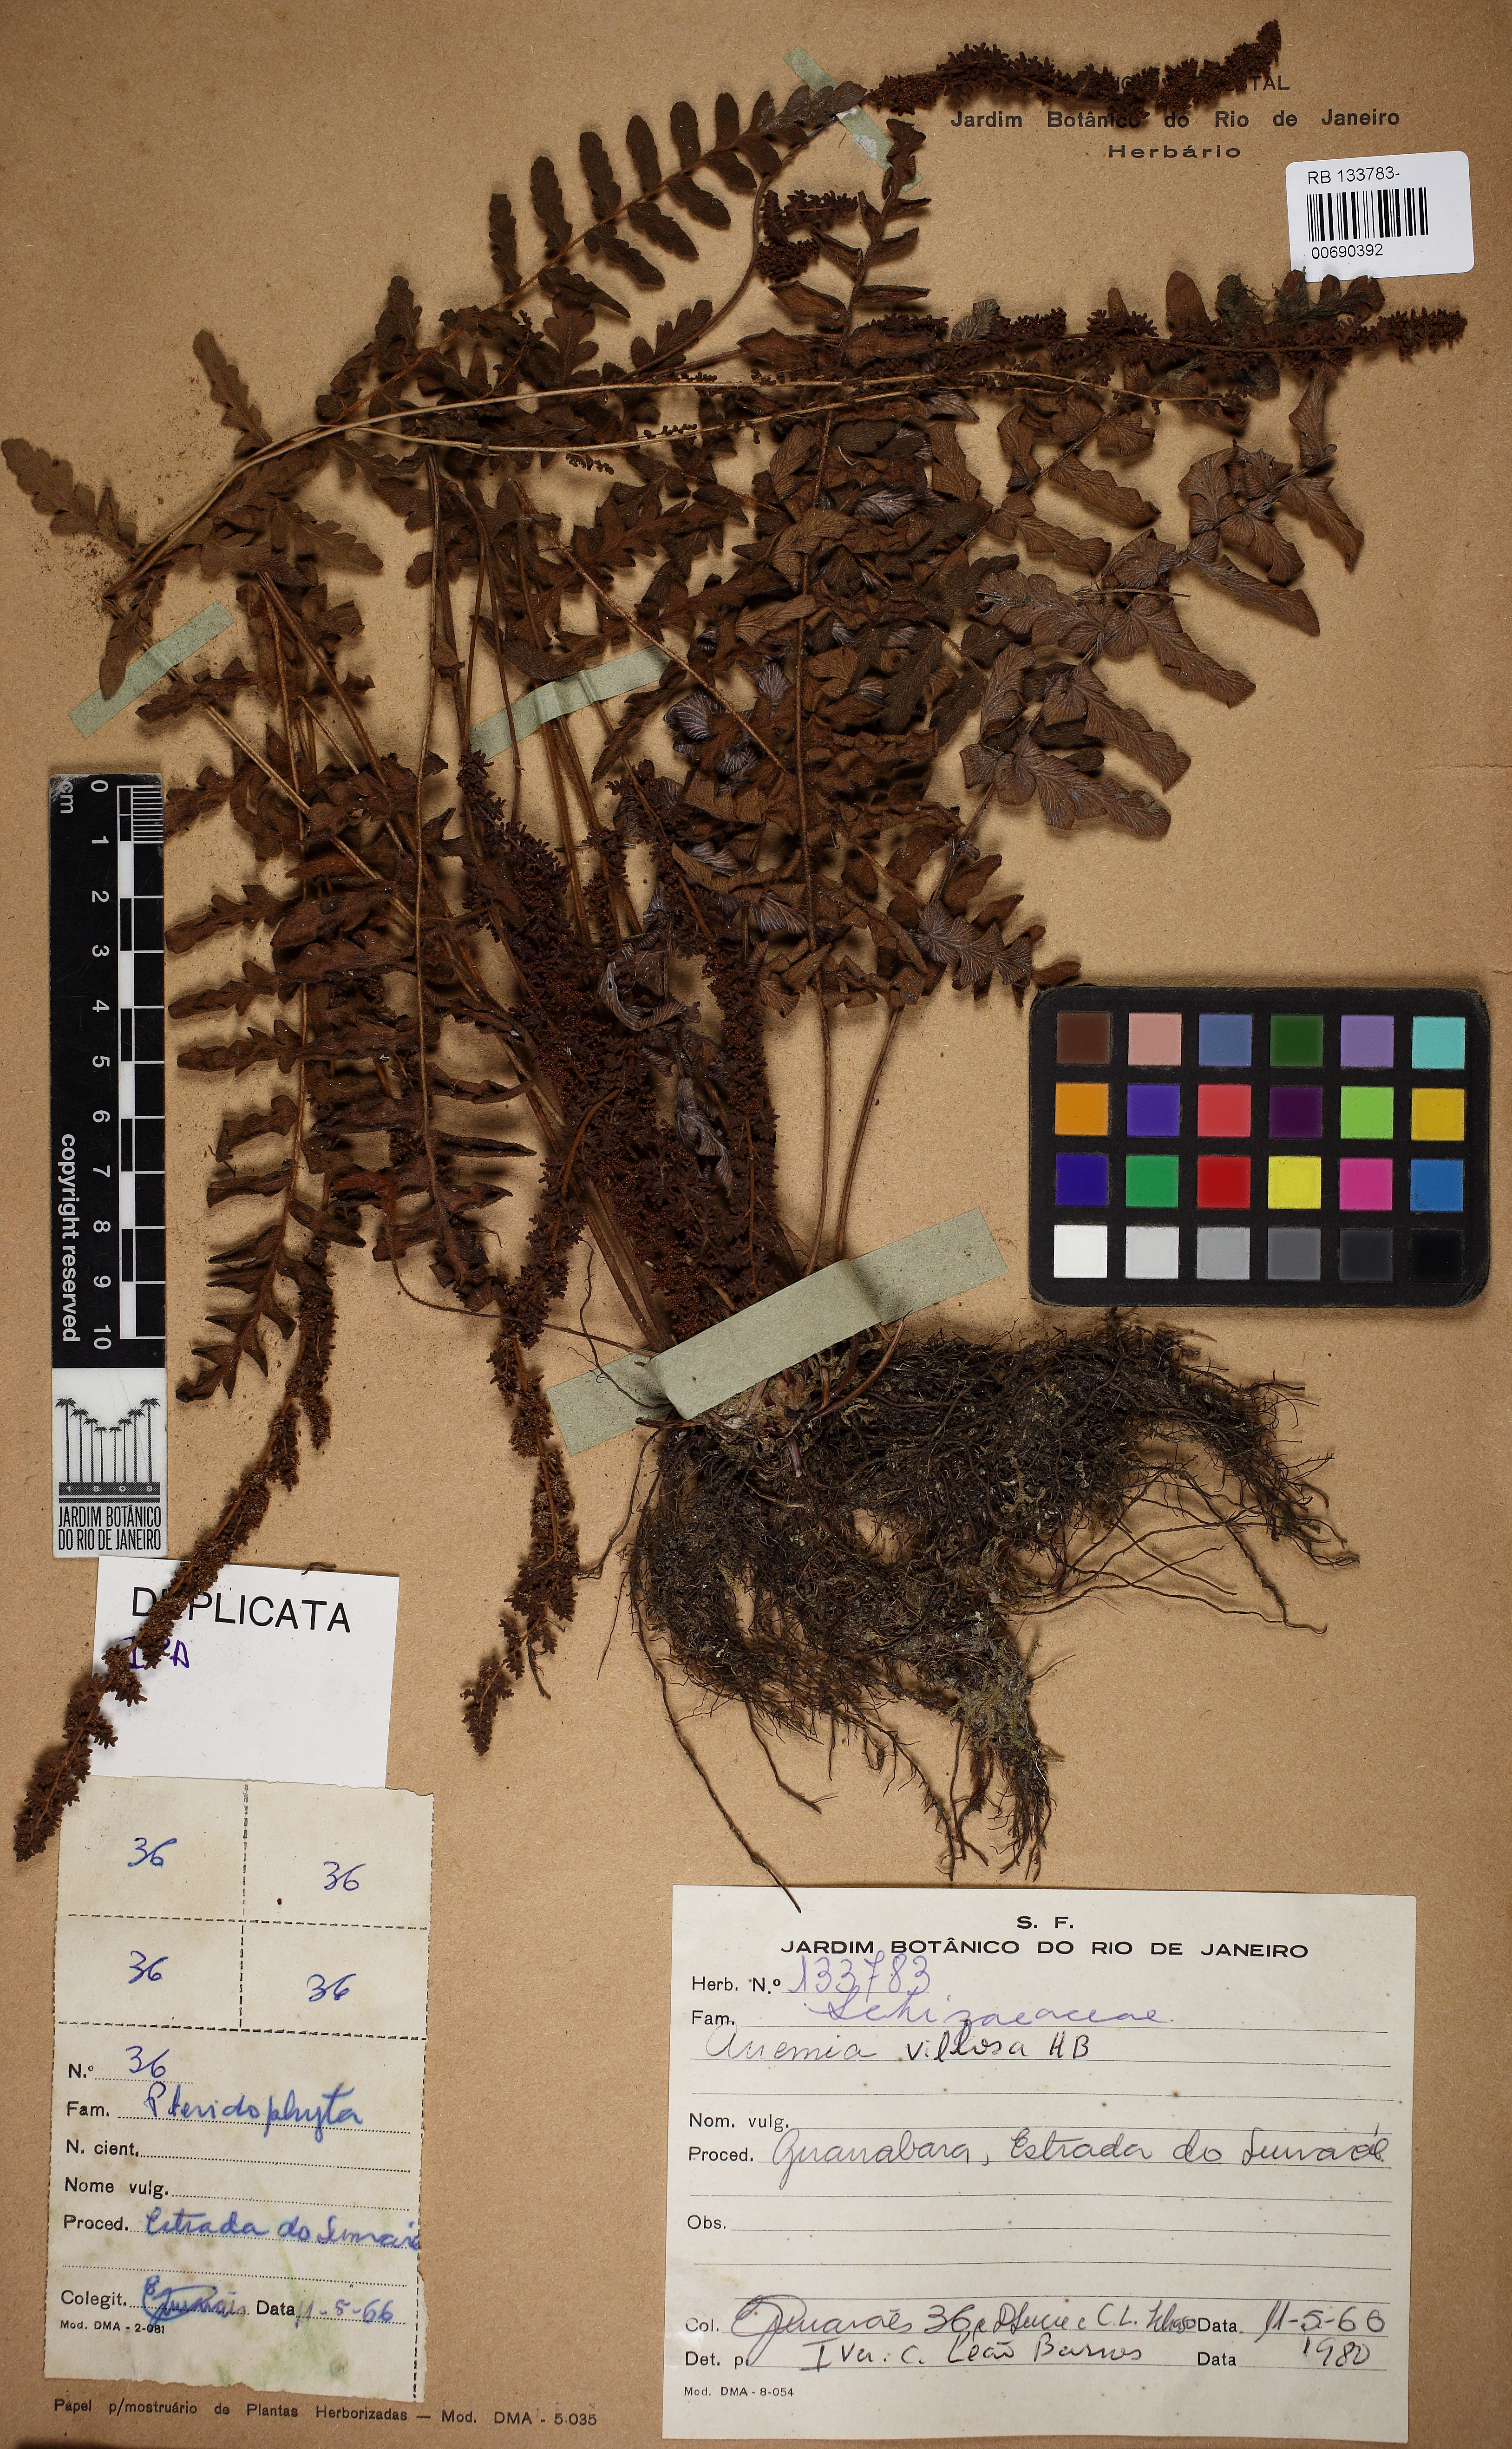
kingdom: Plantae
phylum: Tracheophyta
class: Polypodiopsida
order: Schizaeales
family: Anemiaceae
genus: Anemia
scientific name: Anemia villosa
